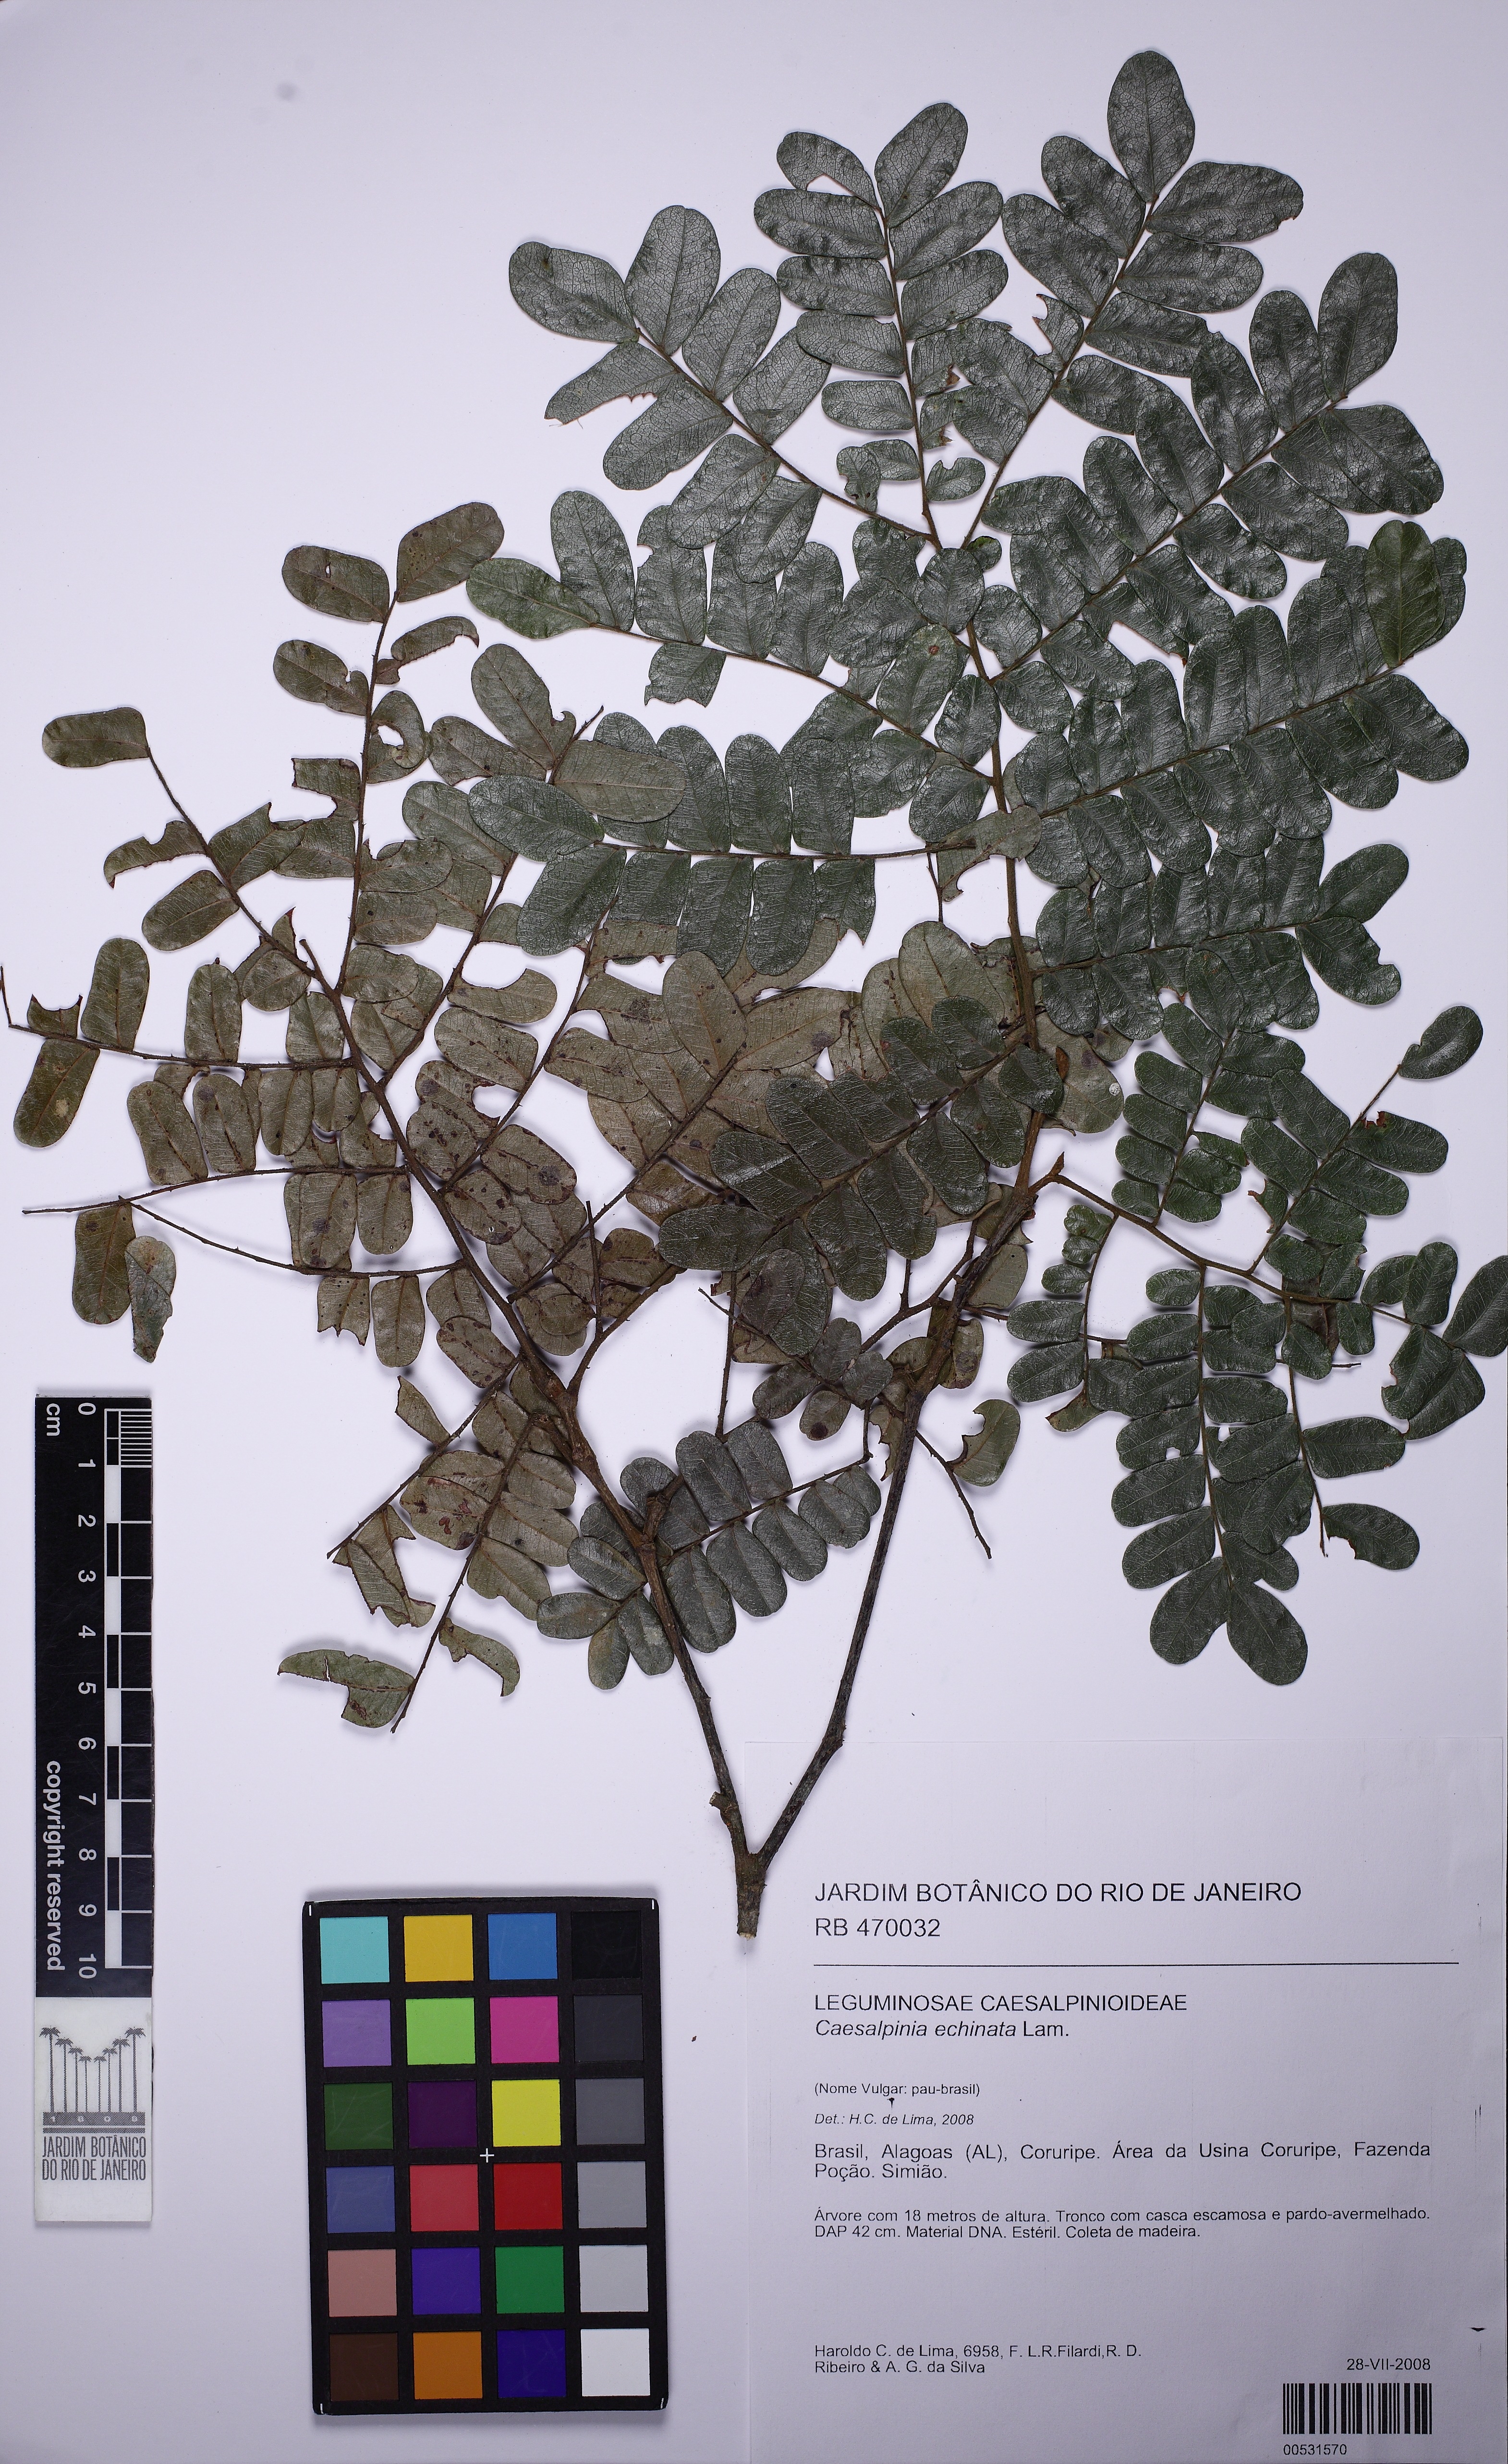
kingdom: Plantae
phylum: Tracheophyta
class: Magnoliopsida
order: Fabales
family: Fabaceae
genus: Paubrasilia
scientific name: Paubrasilia echinata
